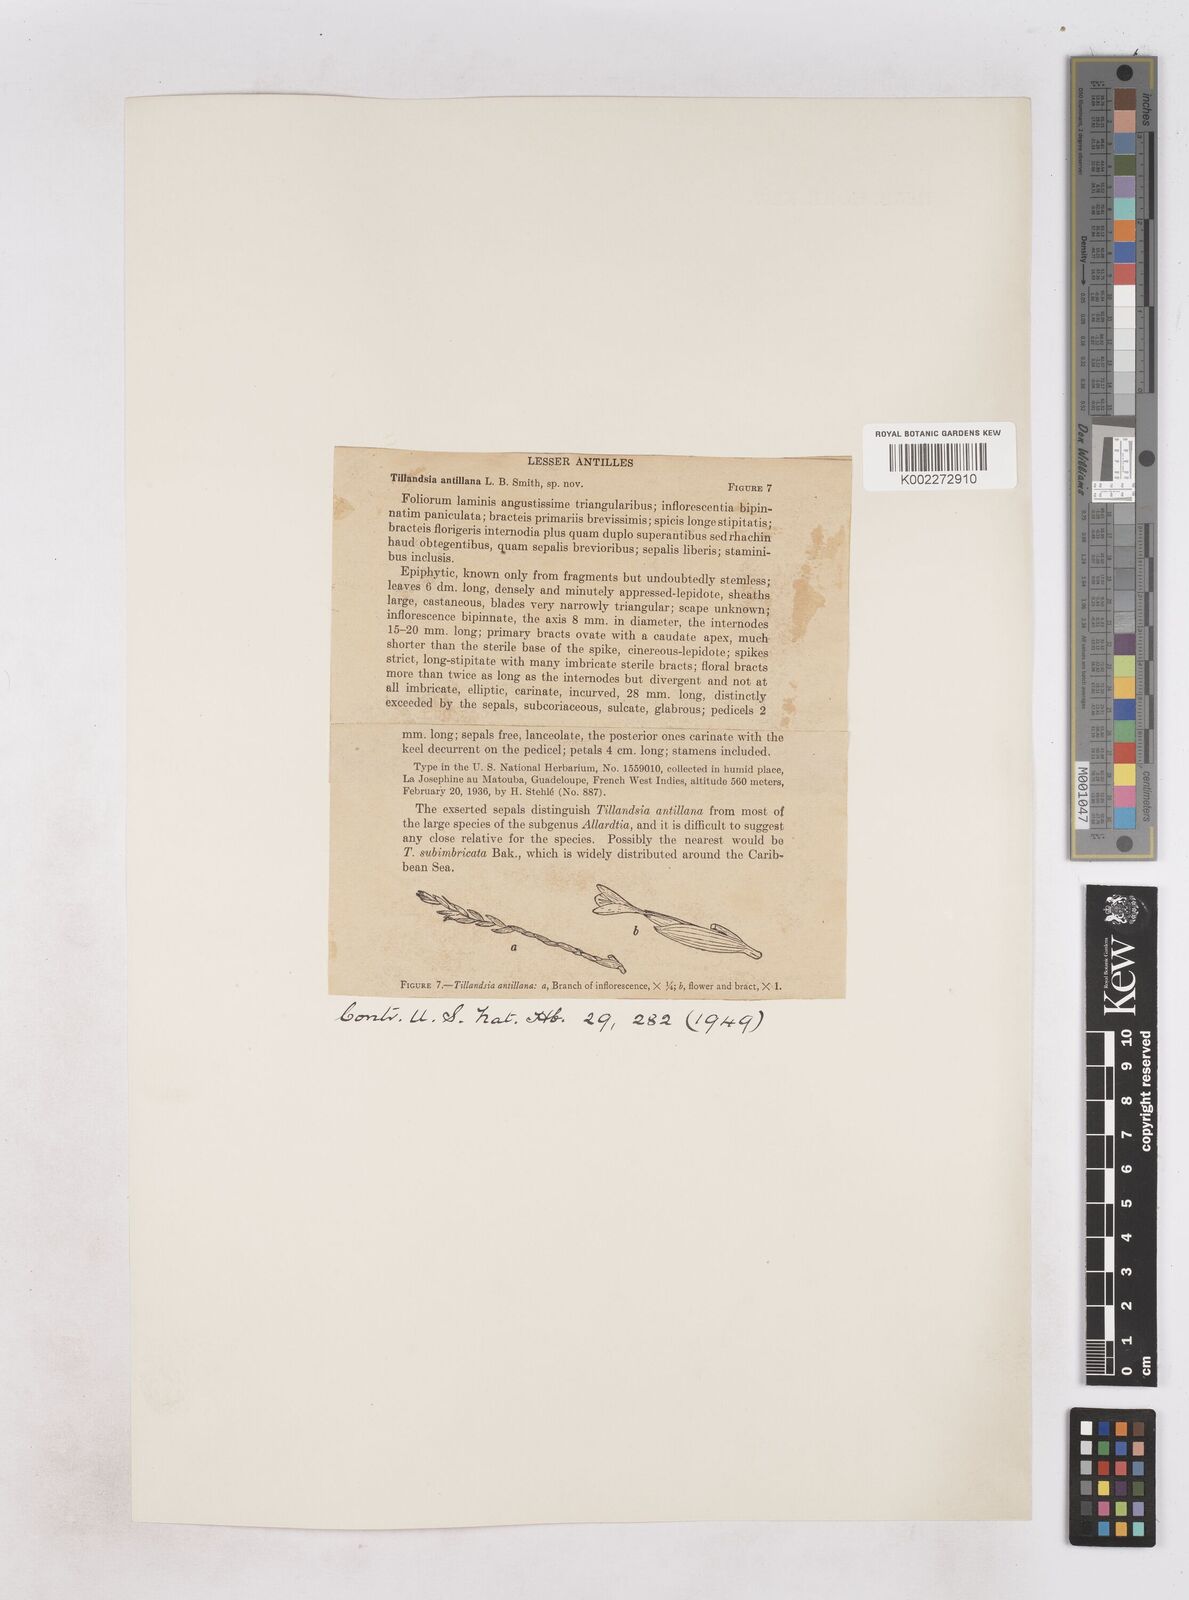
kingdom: Plantae
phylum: Tracheophyta
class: Liliopsida
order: Poales
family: Bromeliaceae
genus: Tillandsia
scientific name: Tillandsia antillana
